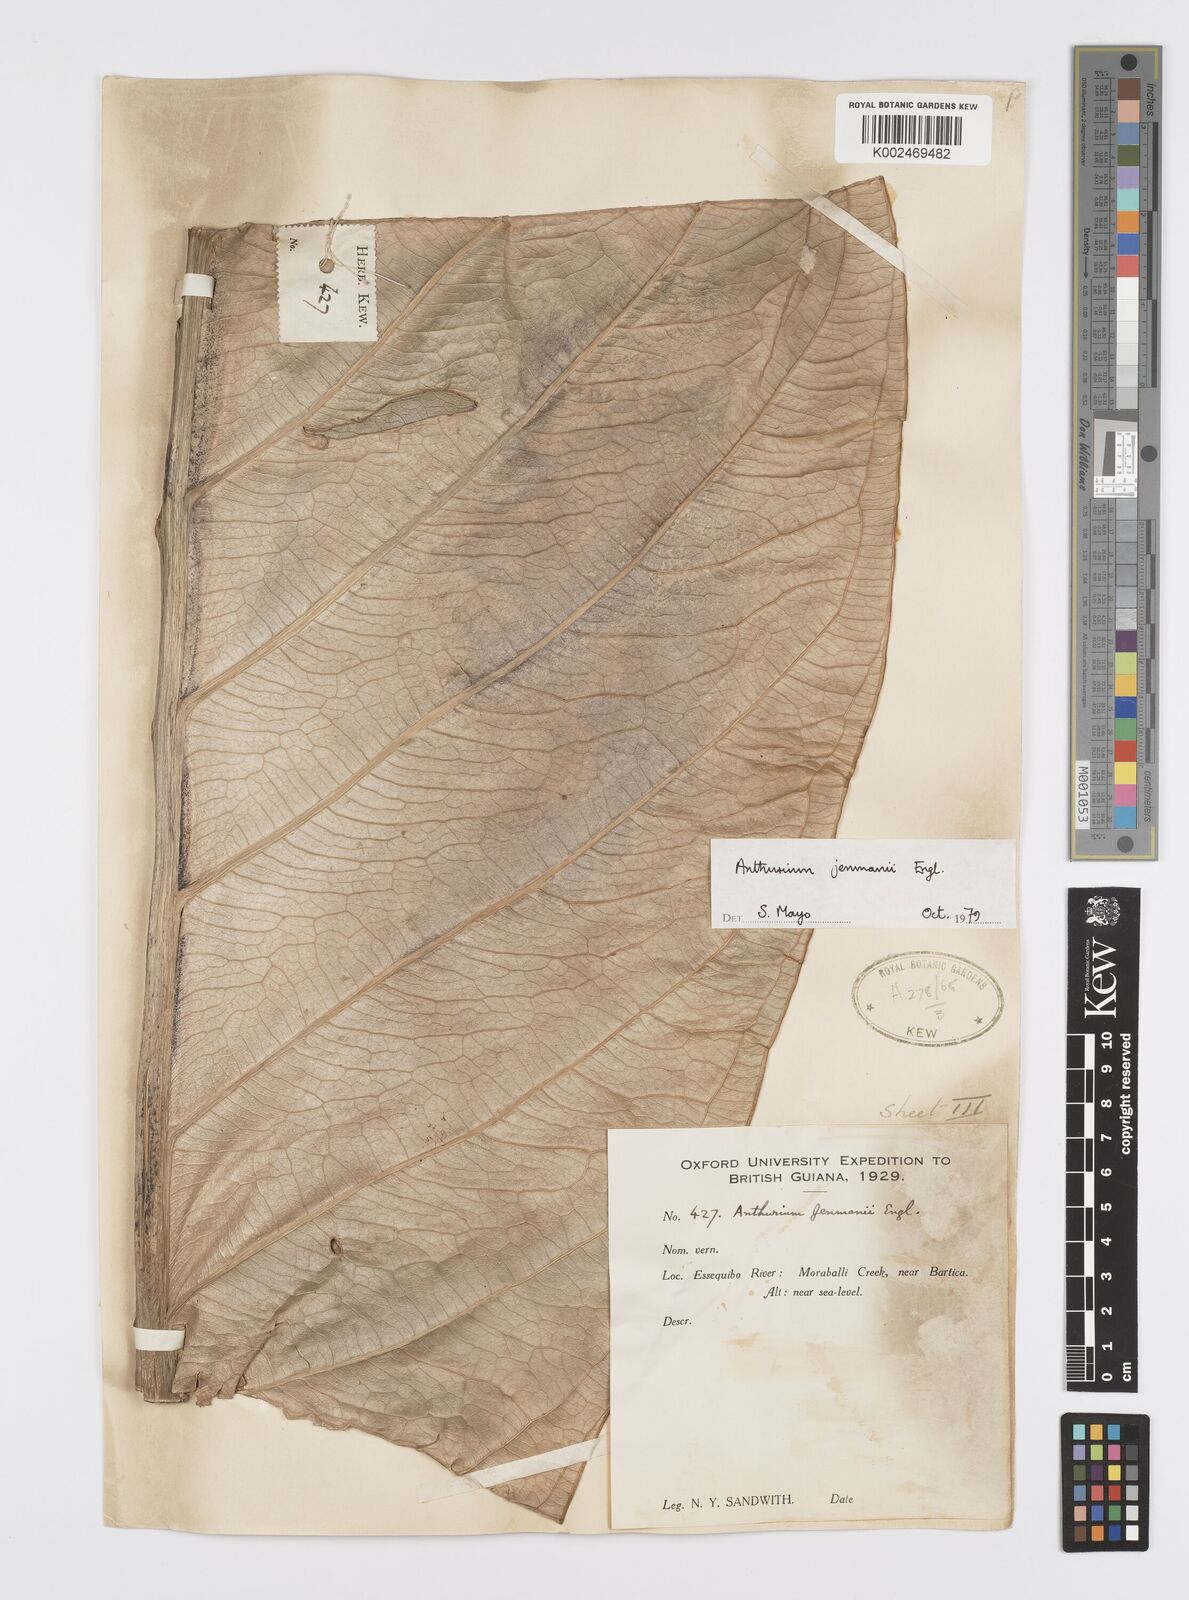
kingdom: Plantae
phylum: Tracheophyta
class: Liliopsida
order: Alismatales
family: Araceae
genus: Anthurium
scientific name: Anthurium jenmanii
